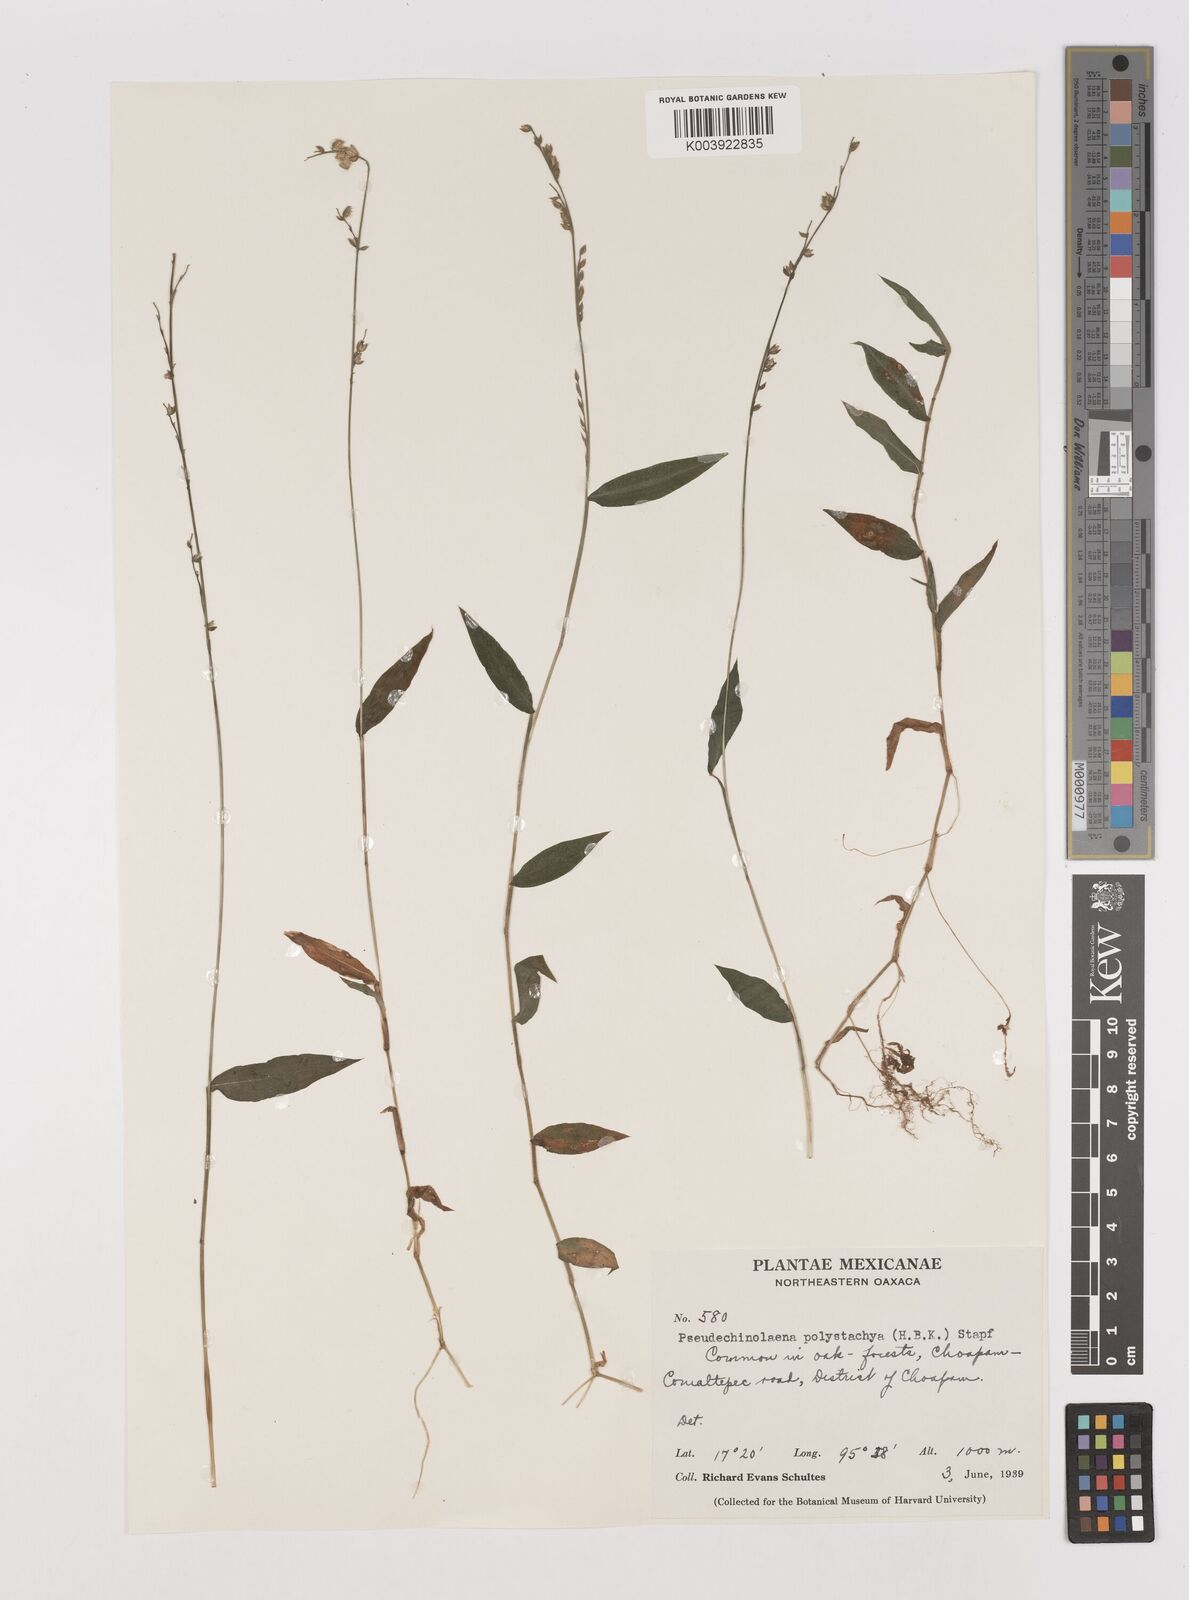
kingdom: Plantae
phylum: Tracheophyta
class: Liliopsida
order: Poales
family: Poaceae
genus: Pseudechinolaena
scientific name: Pseudechinolaena polystachya
